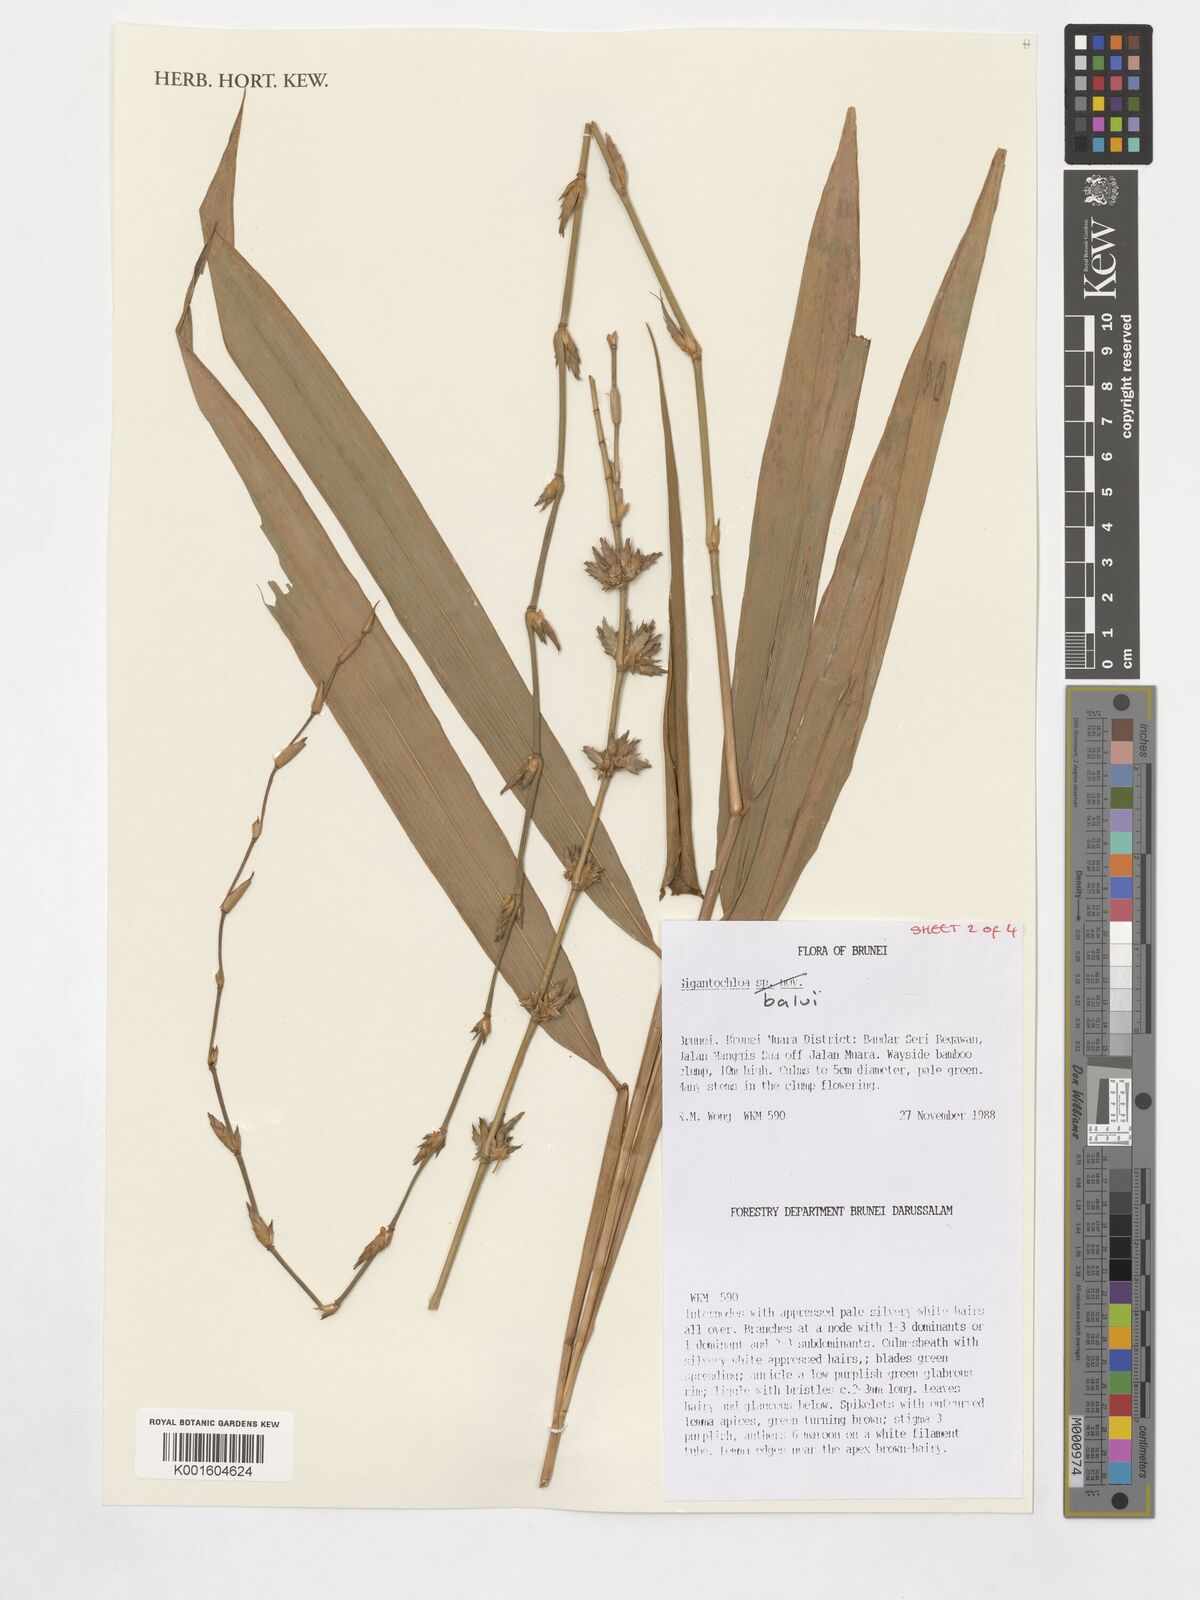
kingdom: Plantae
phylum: Tracheophyta
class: Liliopsida
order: Poales
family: Poaceae
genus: Gigantochloa
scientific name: Gigantochloa balui
